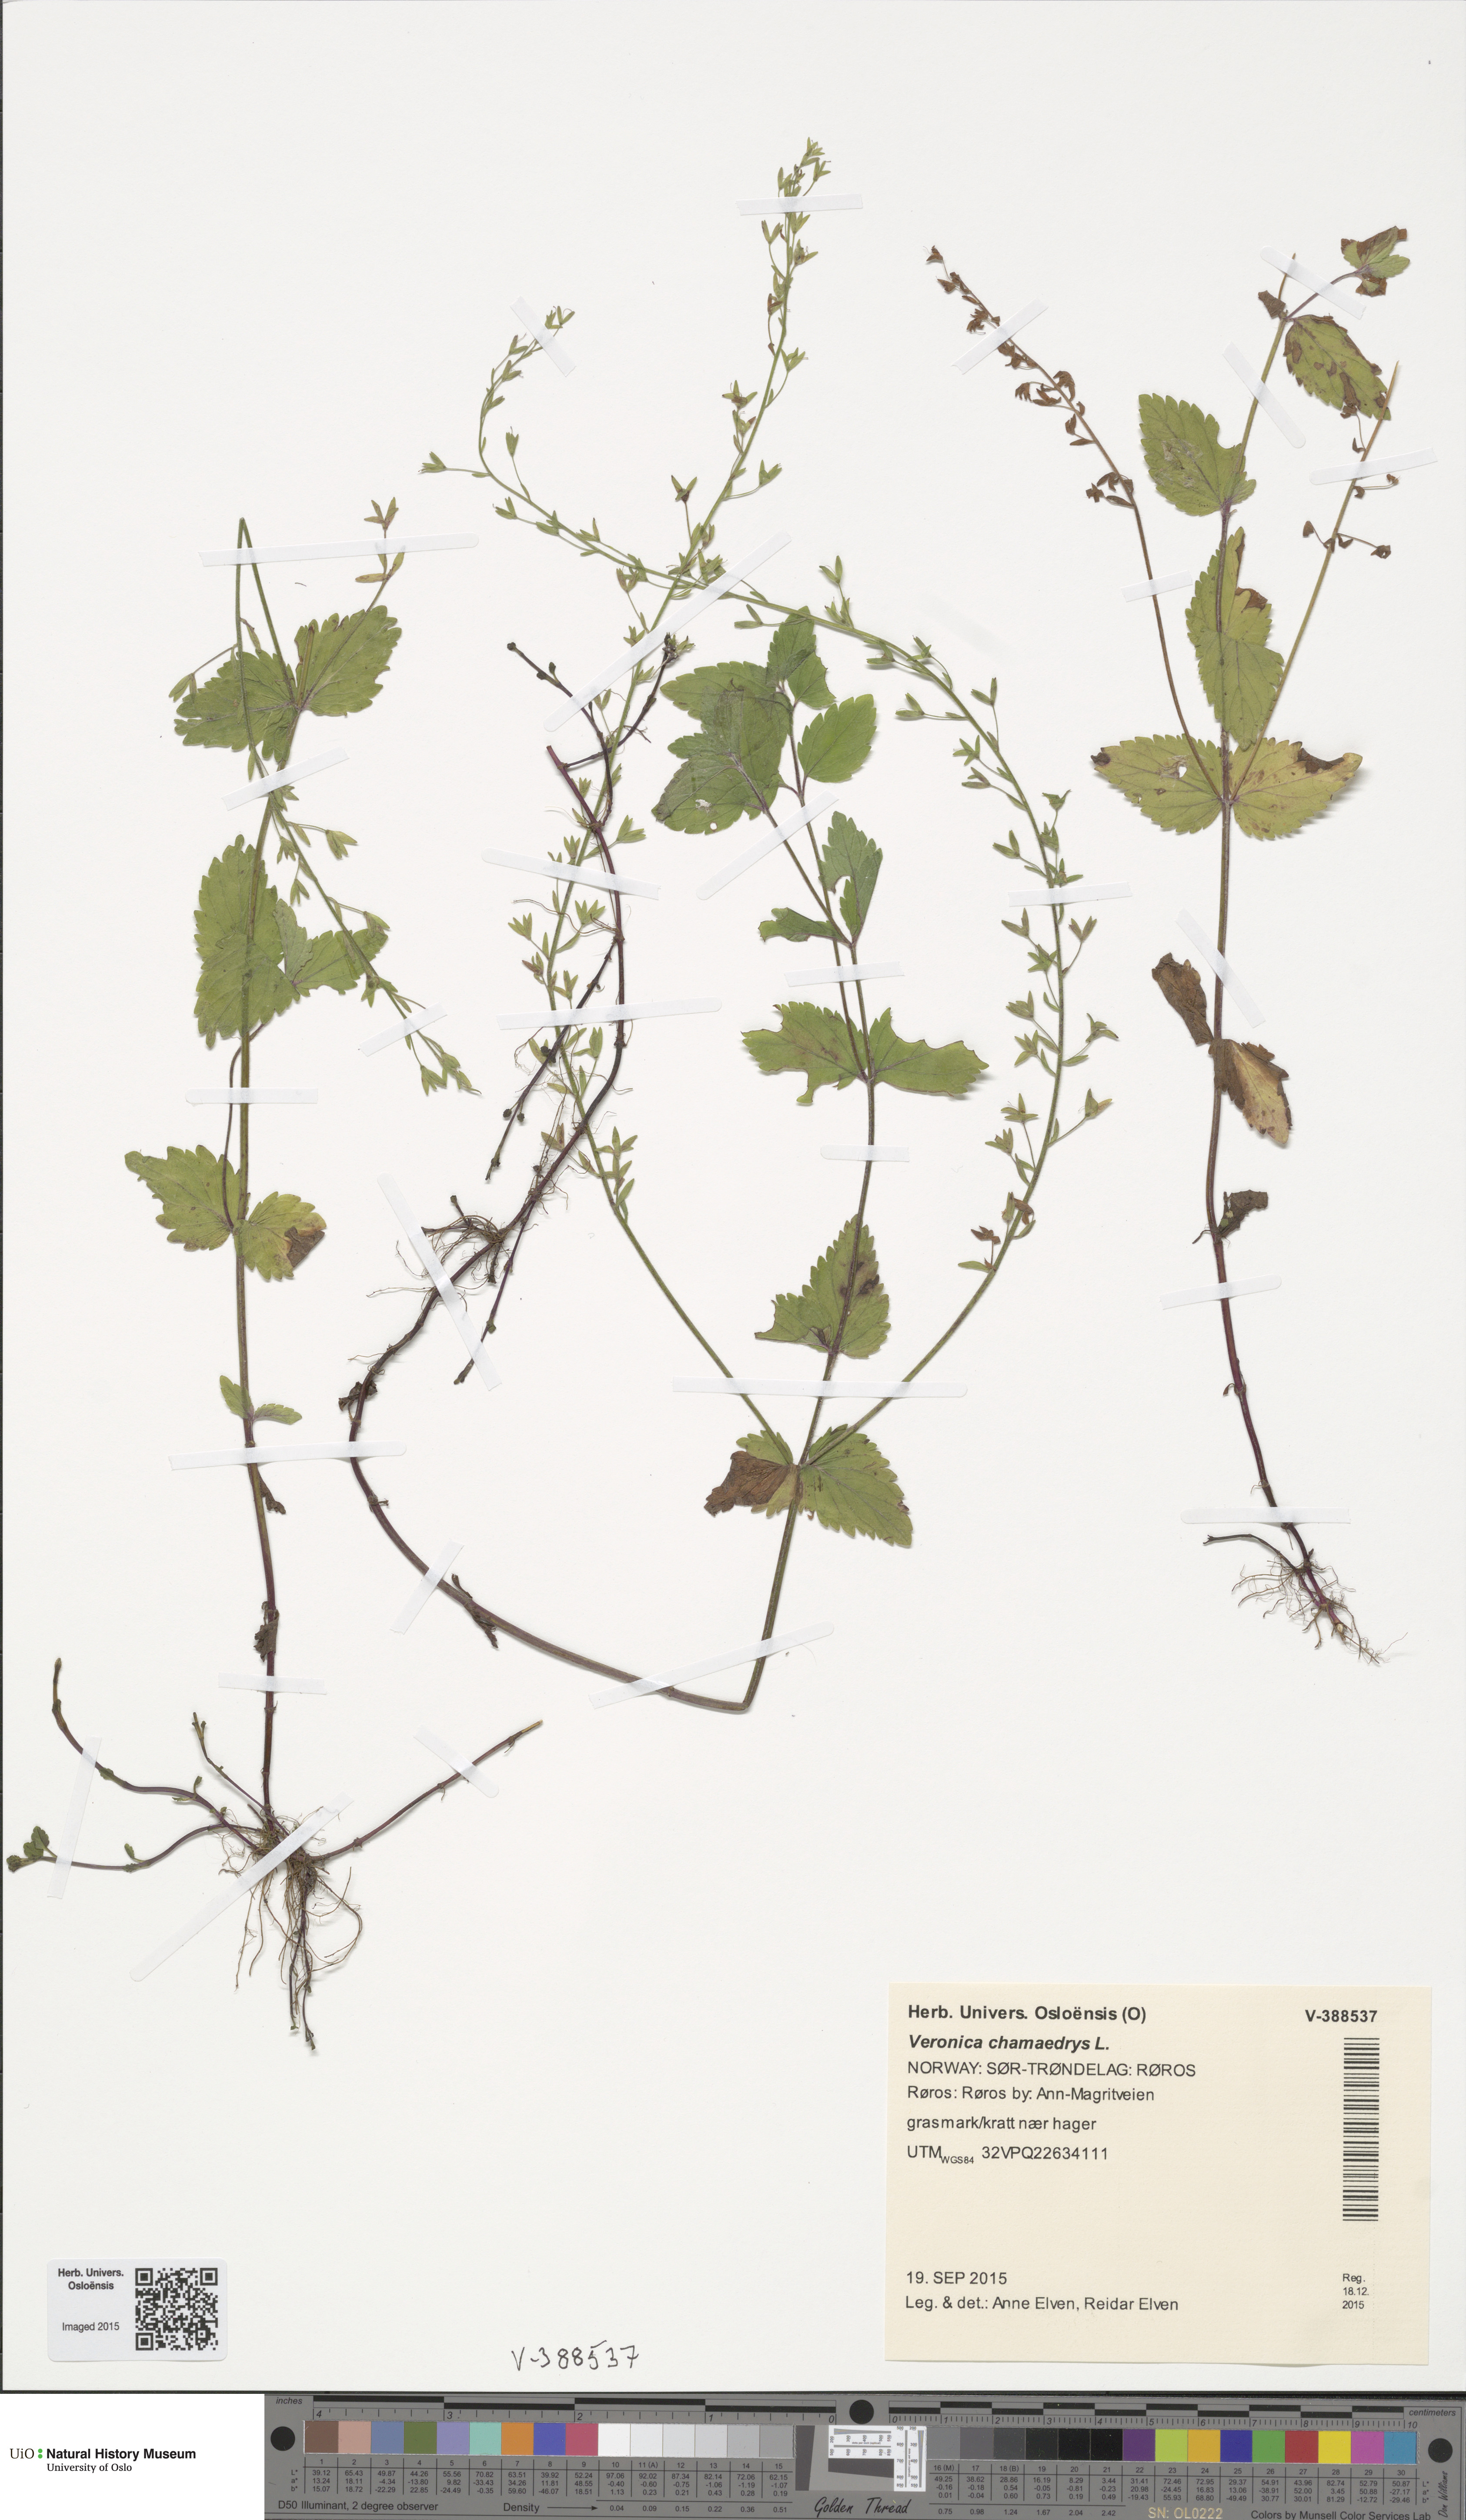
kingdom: Plantae
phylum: Tracheophyta
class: Magnoliopsida
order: Lamiales
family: Plantaginaceae
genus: Veronica
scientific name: Veronica chamaedrys
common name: Germander speedwell
